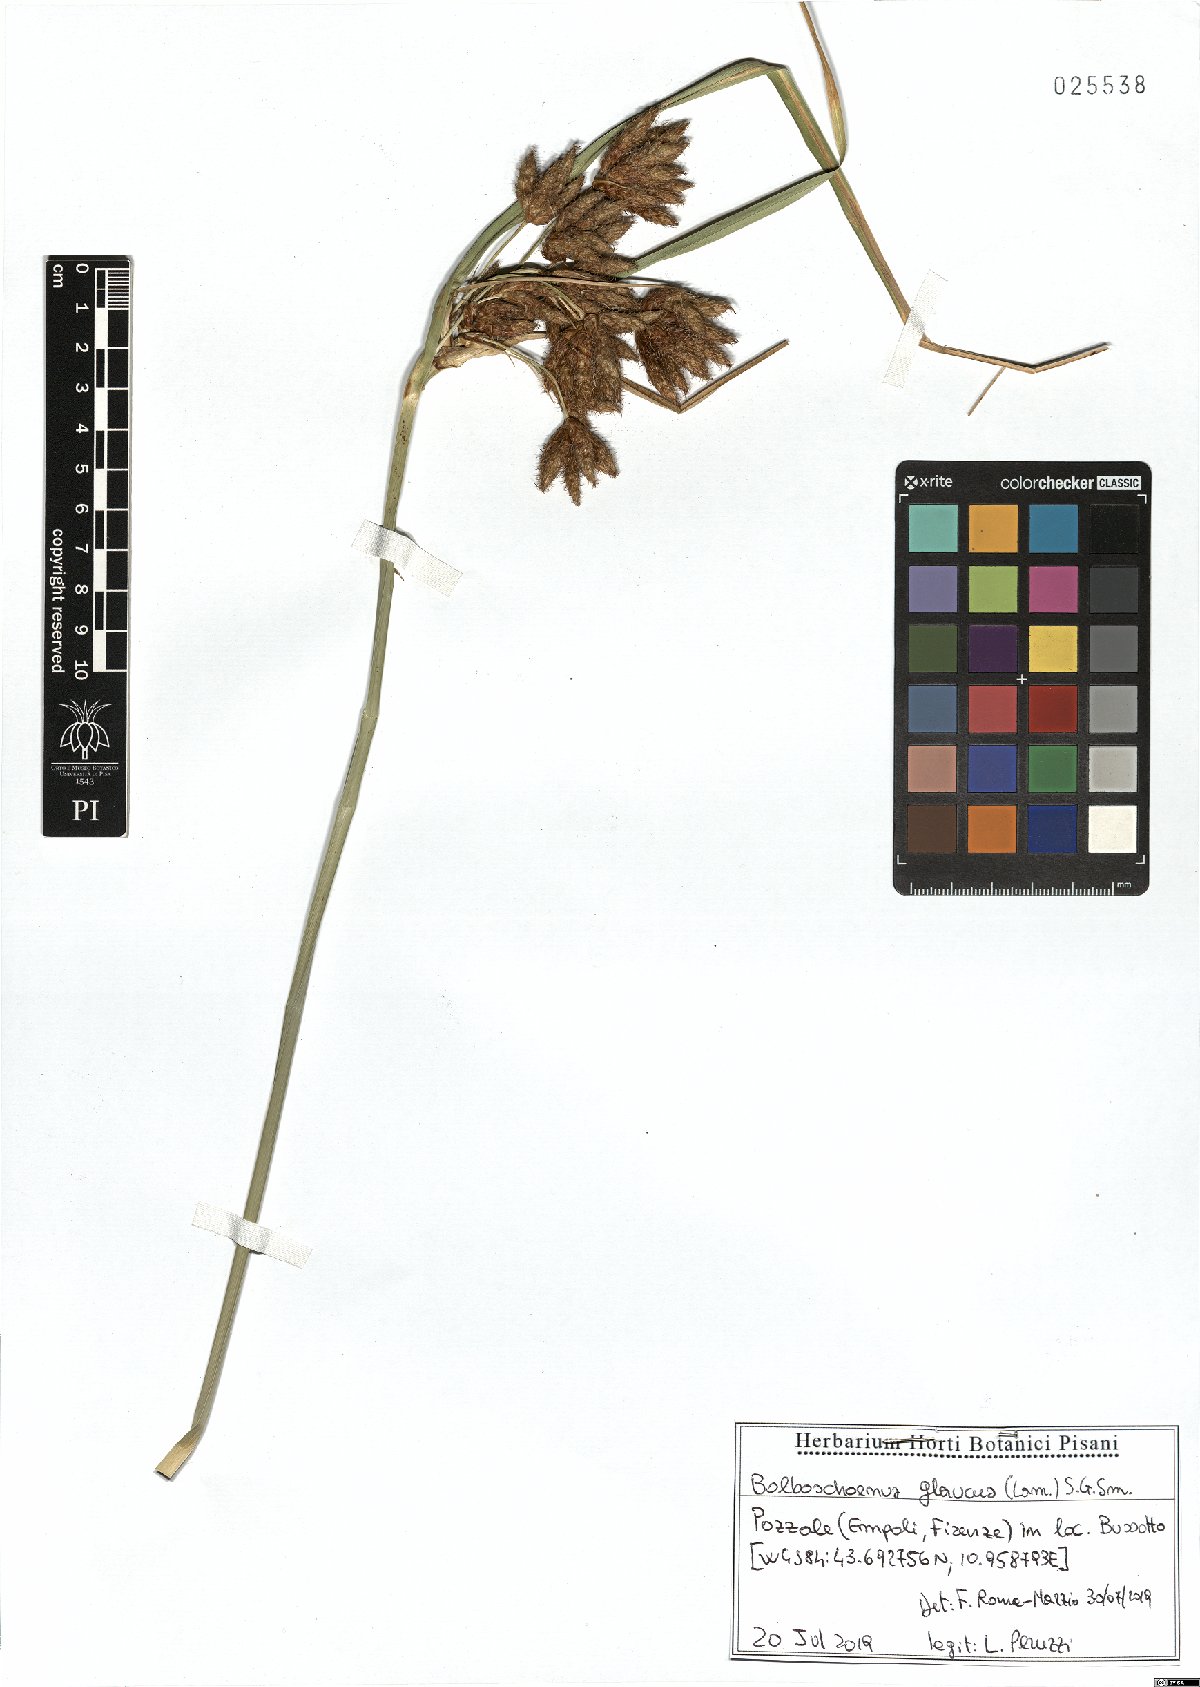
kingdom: Plantae
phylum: Tracheophyta
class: Liliopsida
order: Poales
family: Cyperaceae
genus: Bolboschoenus
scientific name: Bolboschoenus glaucus
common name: Tuberous bulrush
